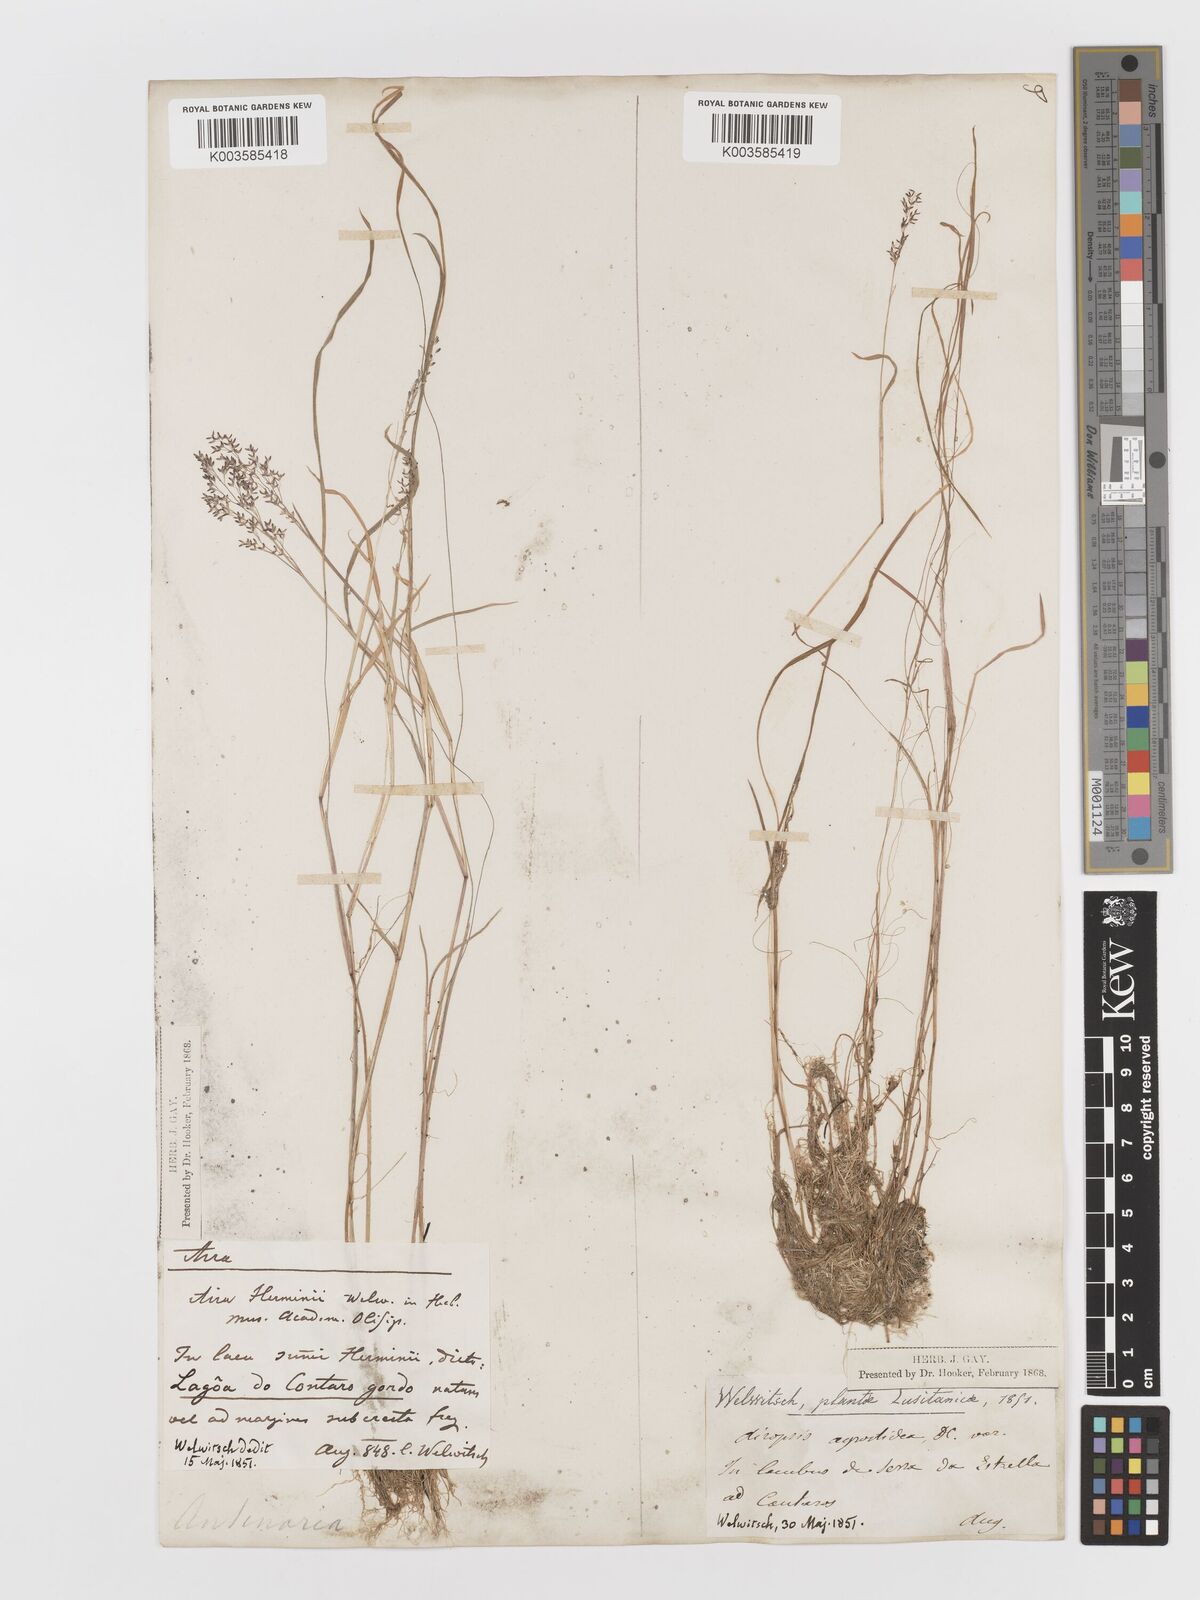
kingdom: Plantae
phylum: Tracheophyta
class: Liliopsida
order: Poales
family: Poaceae
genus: Antinoria
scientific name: Antinoria agrostidea
